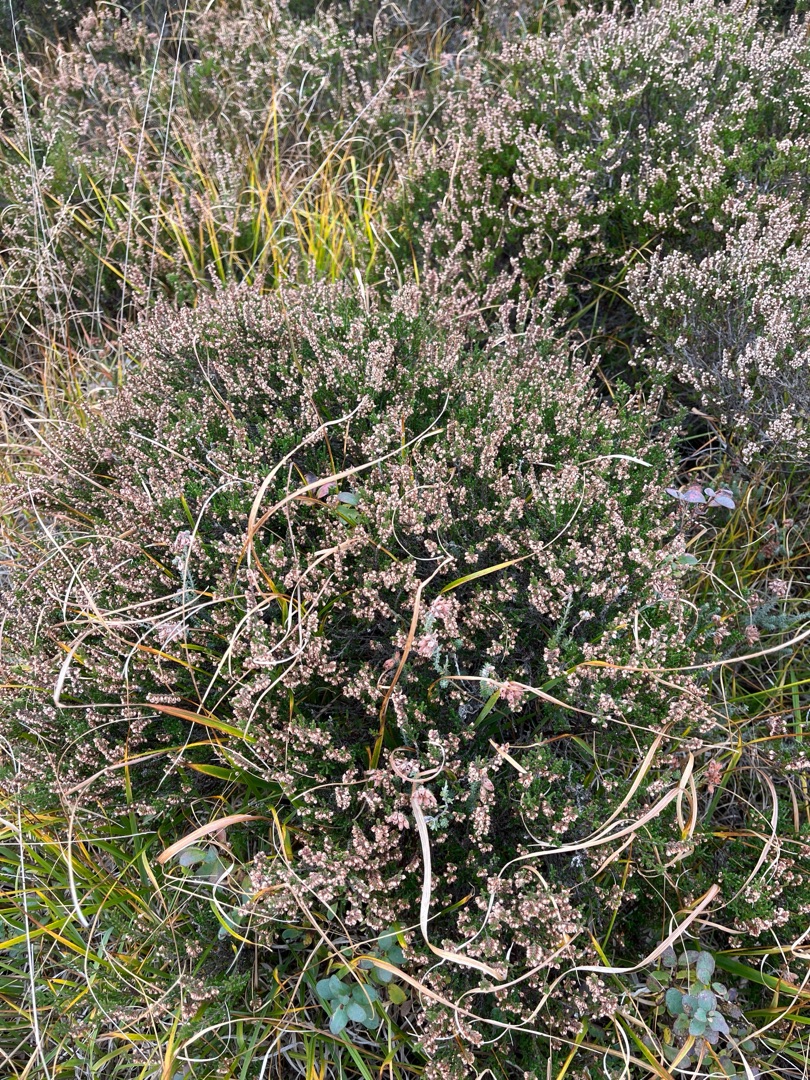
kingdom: Plantae
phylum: Tracheophyta
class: Magnoliopsida
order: Ericales
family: Ericaceae
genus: Calluna
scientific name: Calluna vulgaris
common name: Hedelyng
